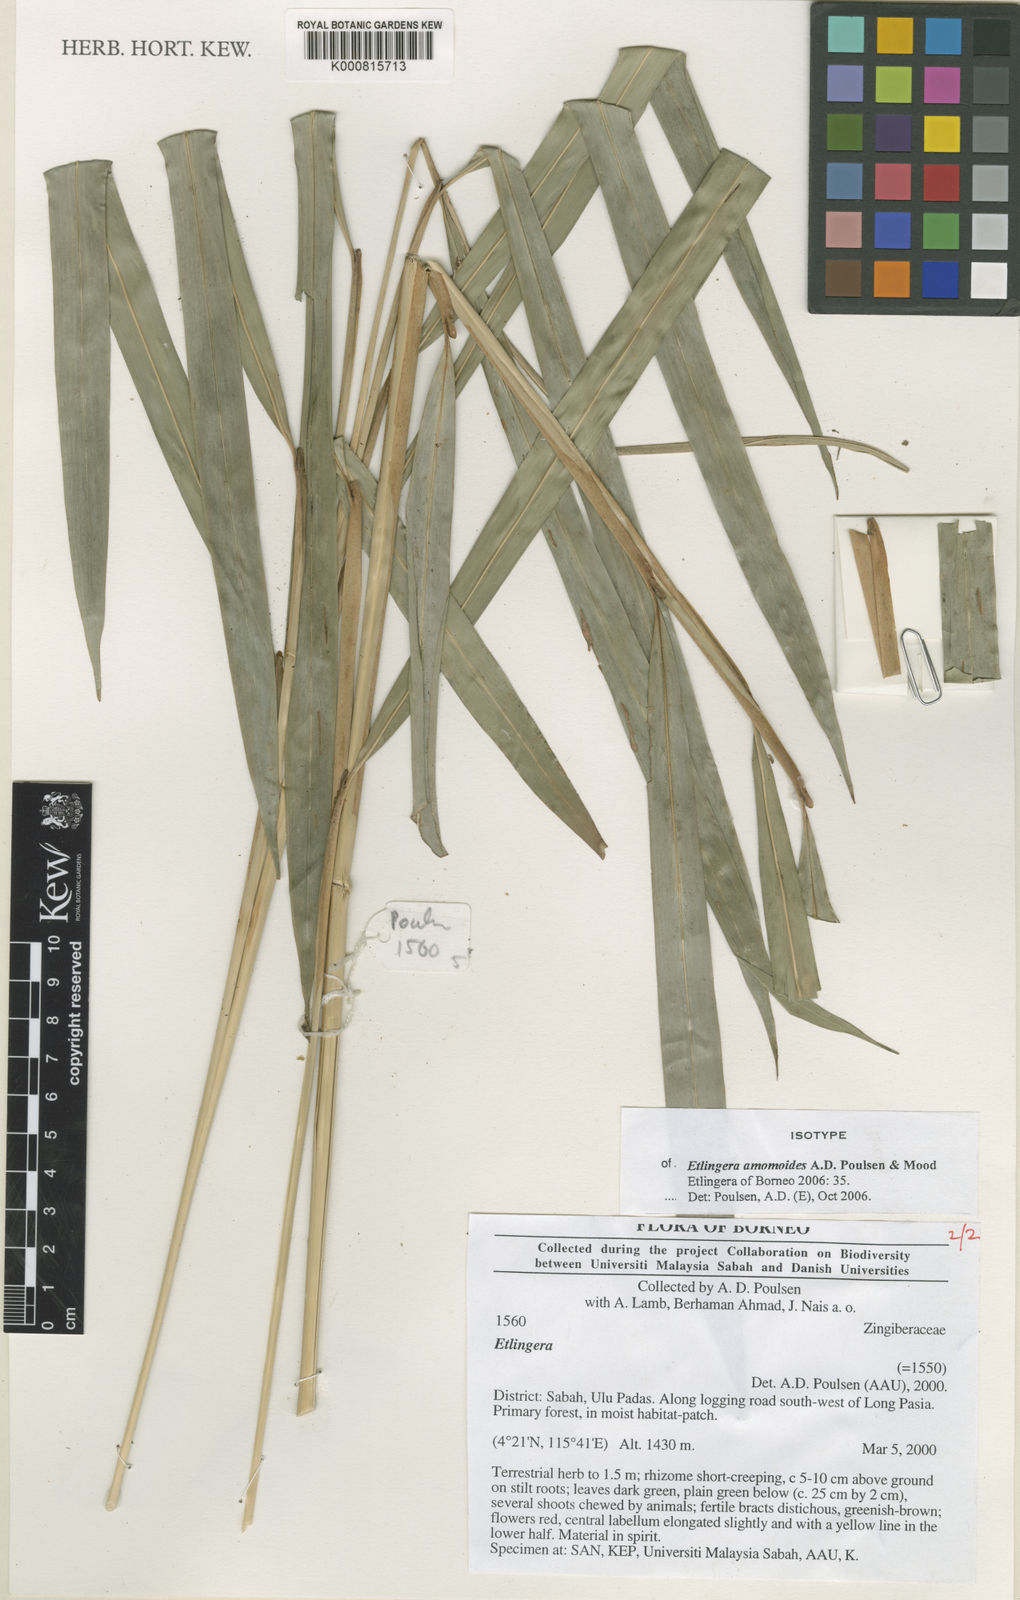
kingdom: Plantae
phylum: Tracheophyta
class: Liliopsida
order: Zingiberales
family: Zingiberaceae
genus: Etlingera
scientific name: Etlingera amomoides
